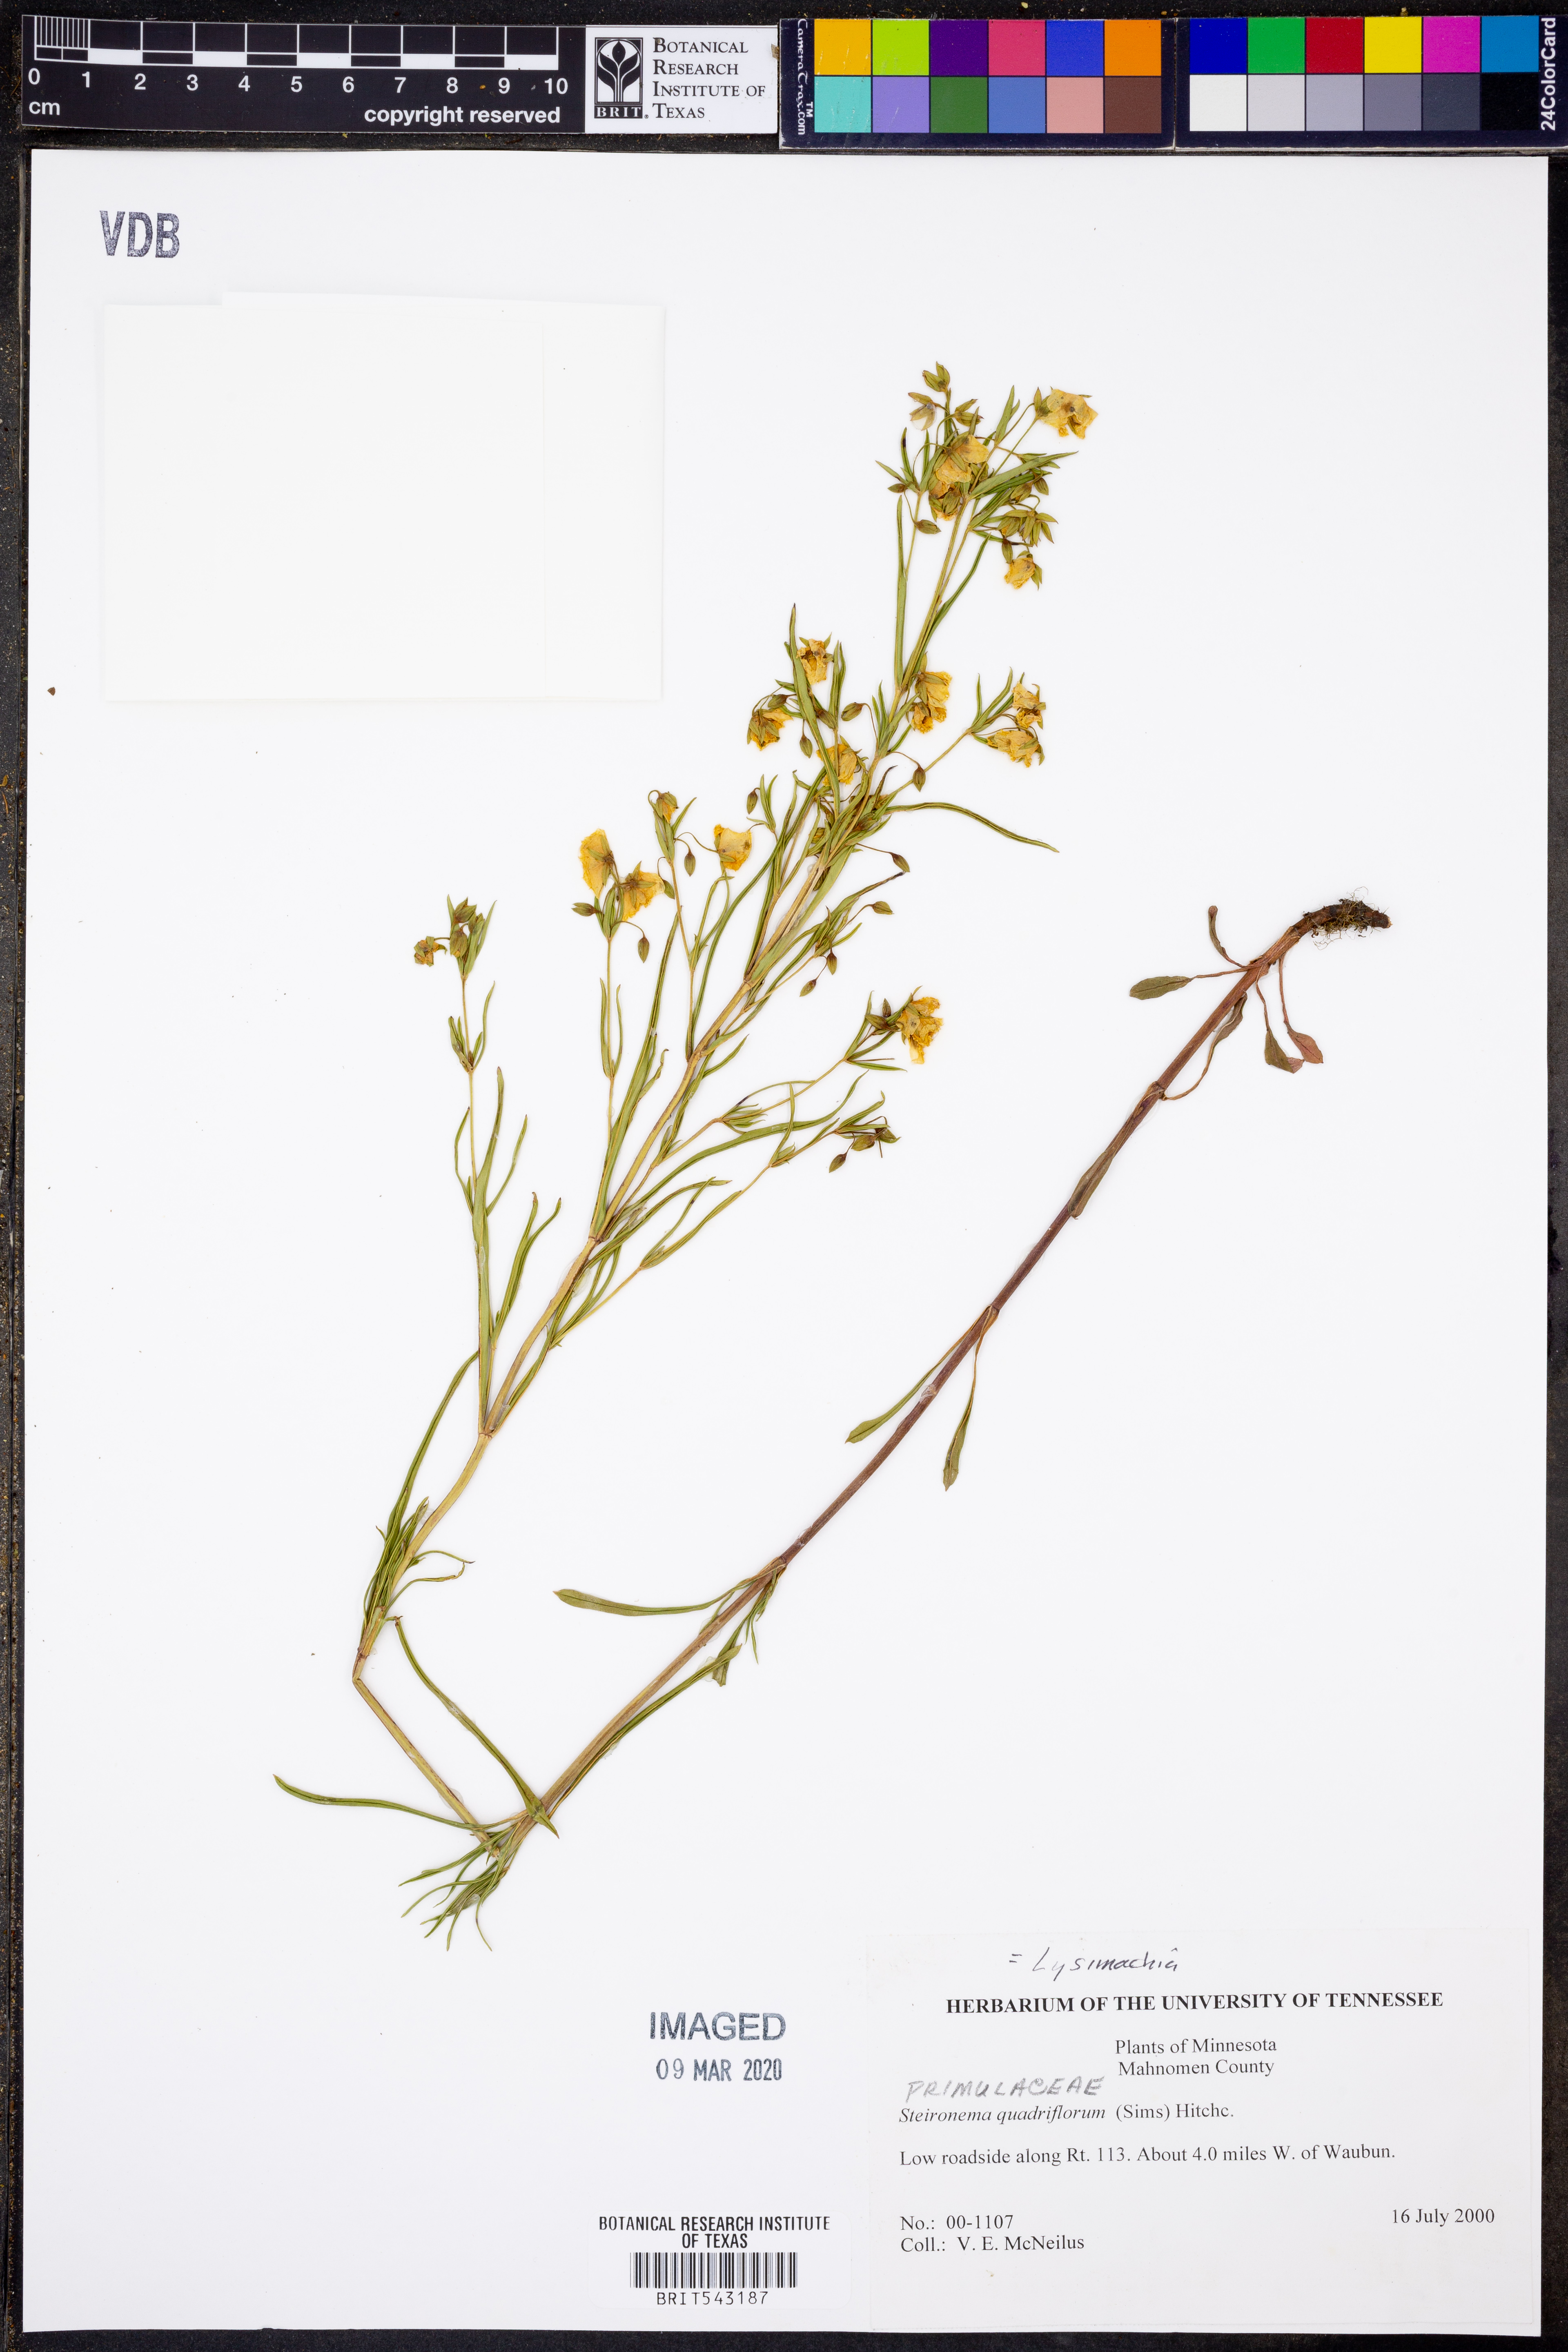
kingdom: Plantae
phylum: Tracheophyta
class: Magnoliopsida
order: Ericales
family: Primulaceae
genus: Lysimachia
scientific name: Lysimachia quadriflora
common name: Four-flowered loosestrife
